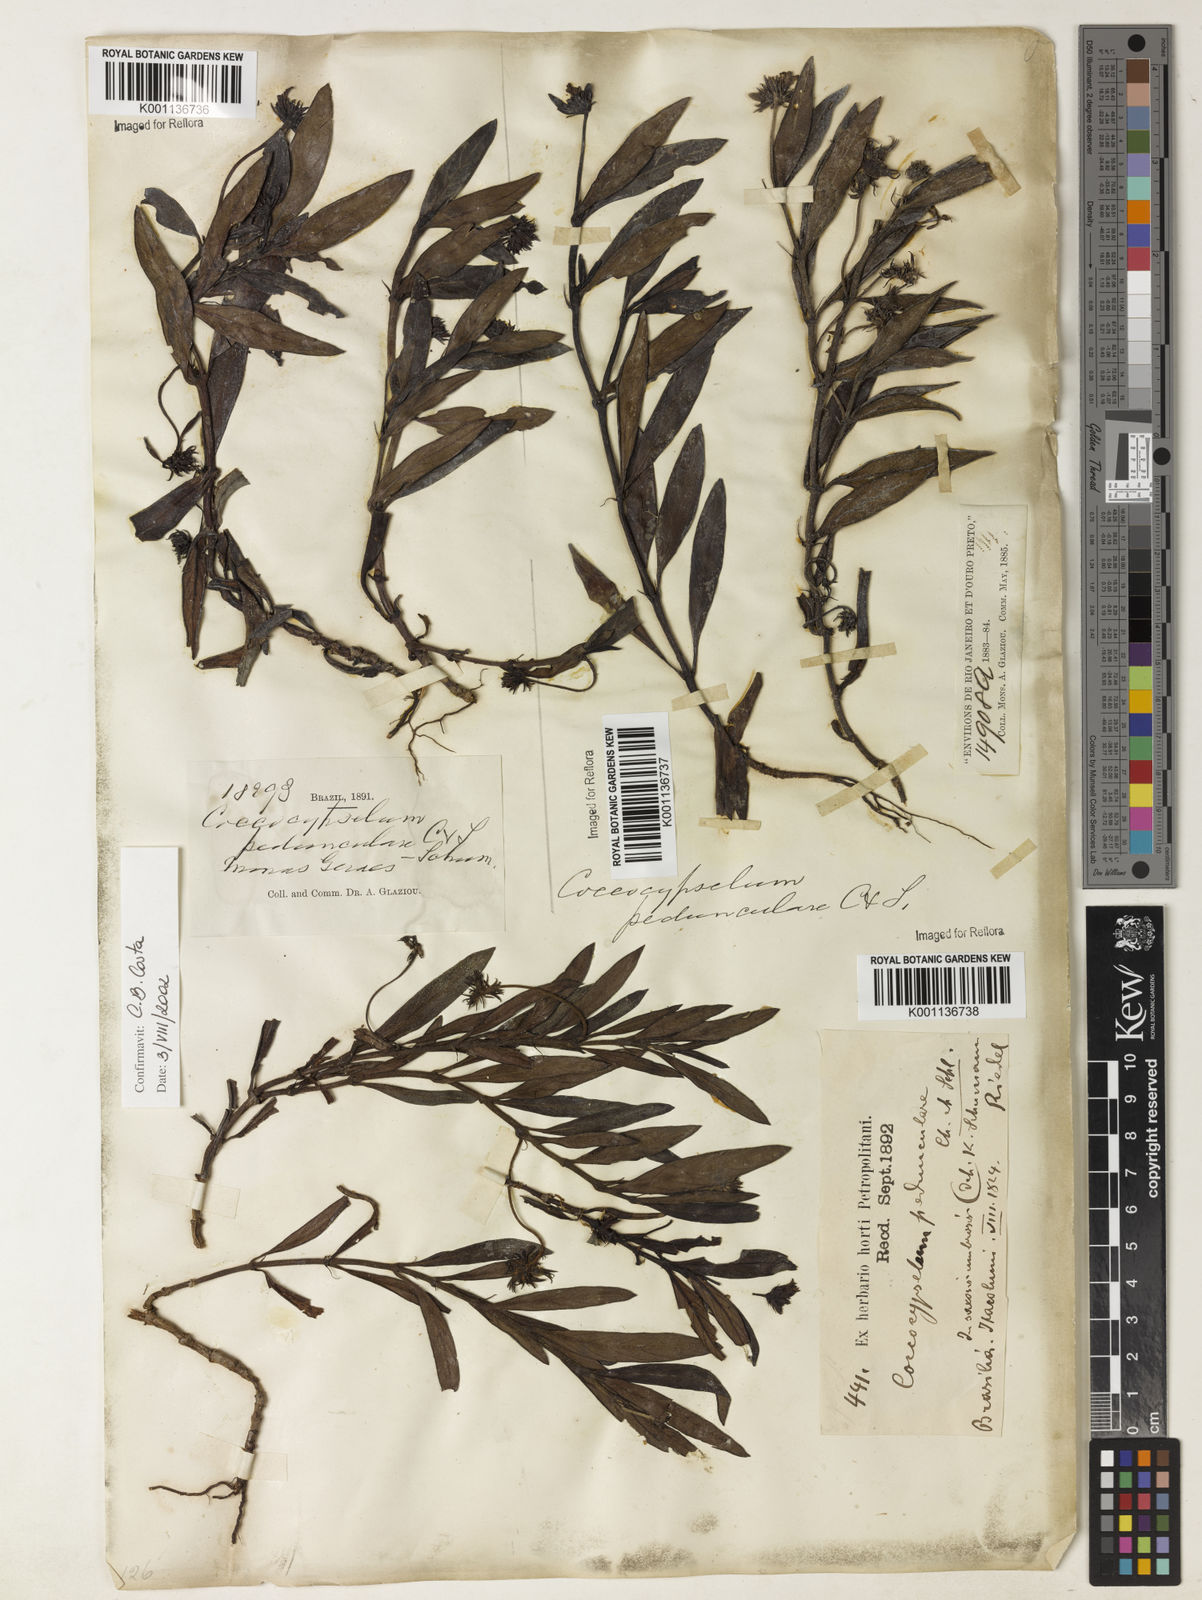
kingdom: Plantae
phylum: Tracheophyta
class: Magnoliopsida
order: Gentianales
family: Rubiaceae
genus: Coccocypselum
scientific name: Coccocypselum pedunculare
